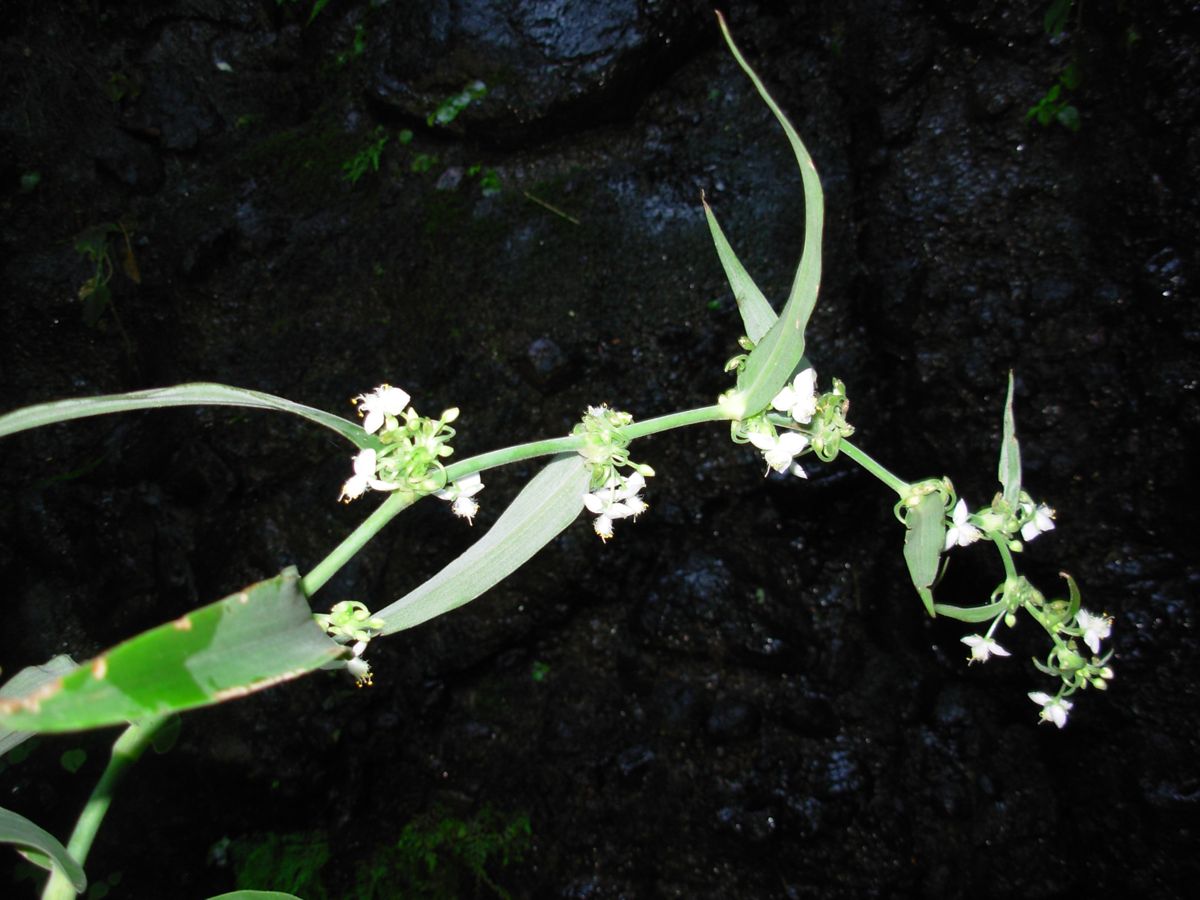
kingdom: Plantae
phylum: Tracheophyta
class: Liliopsida
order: Commelinales
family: Commelinaceae
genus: Tradescantia
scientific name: Tradescantia velutina
